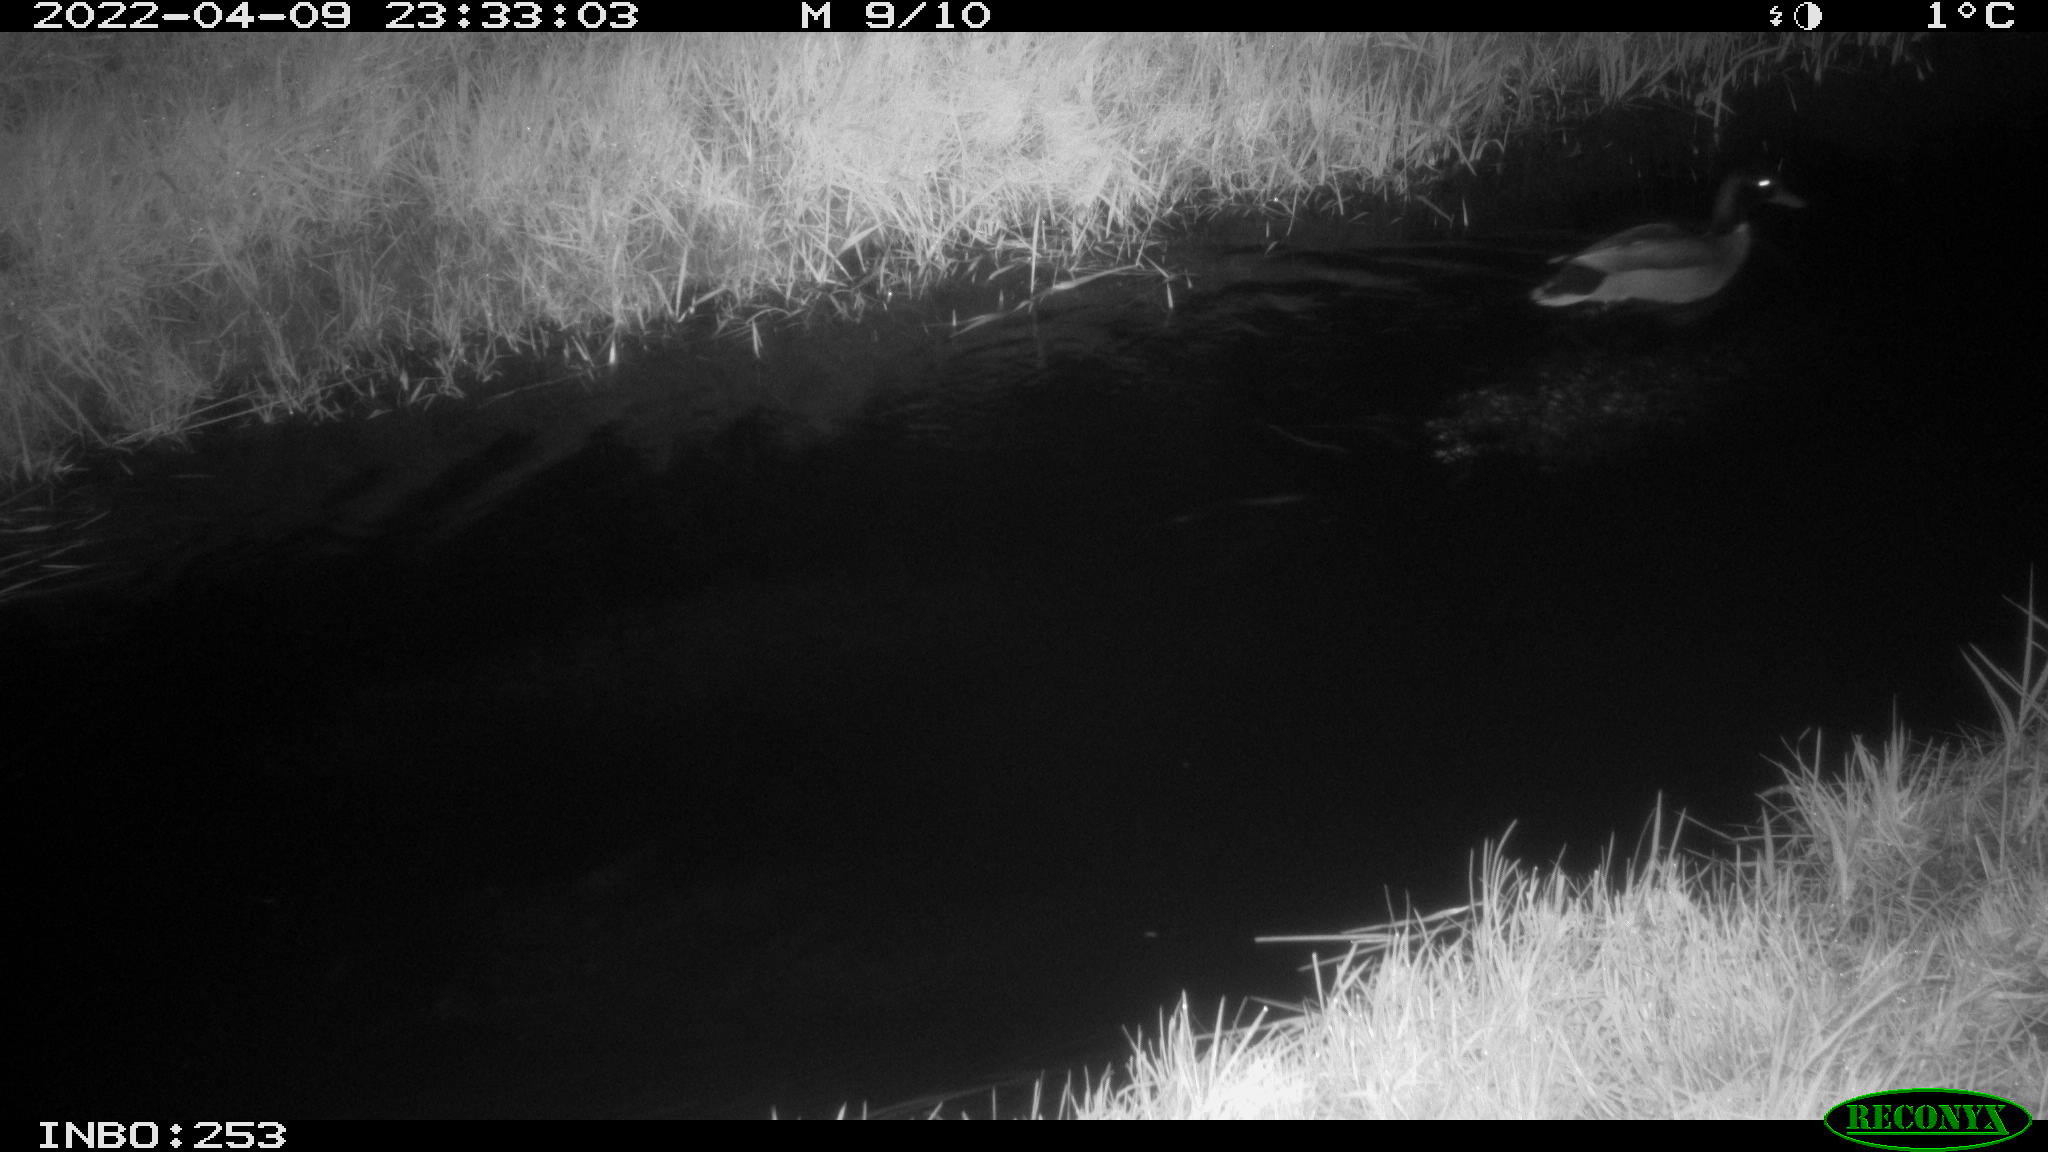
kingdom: Animalia
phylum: Chordata
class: Aves
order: Anseriformes
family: Anatidae
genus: Anas
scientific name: Anas platyrhynchos
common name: Mallard
